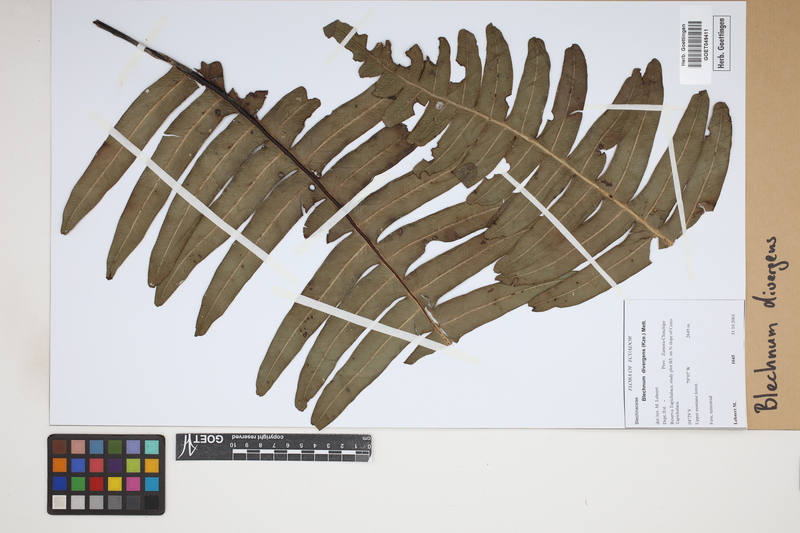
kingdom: Plantae
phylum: Tracheophyta
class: Polypodiopsida
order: Polypodiales
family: Blechnaceae
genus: Austroblechnum
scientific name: Austroblechnum divergens
